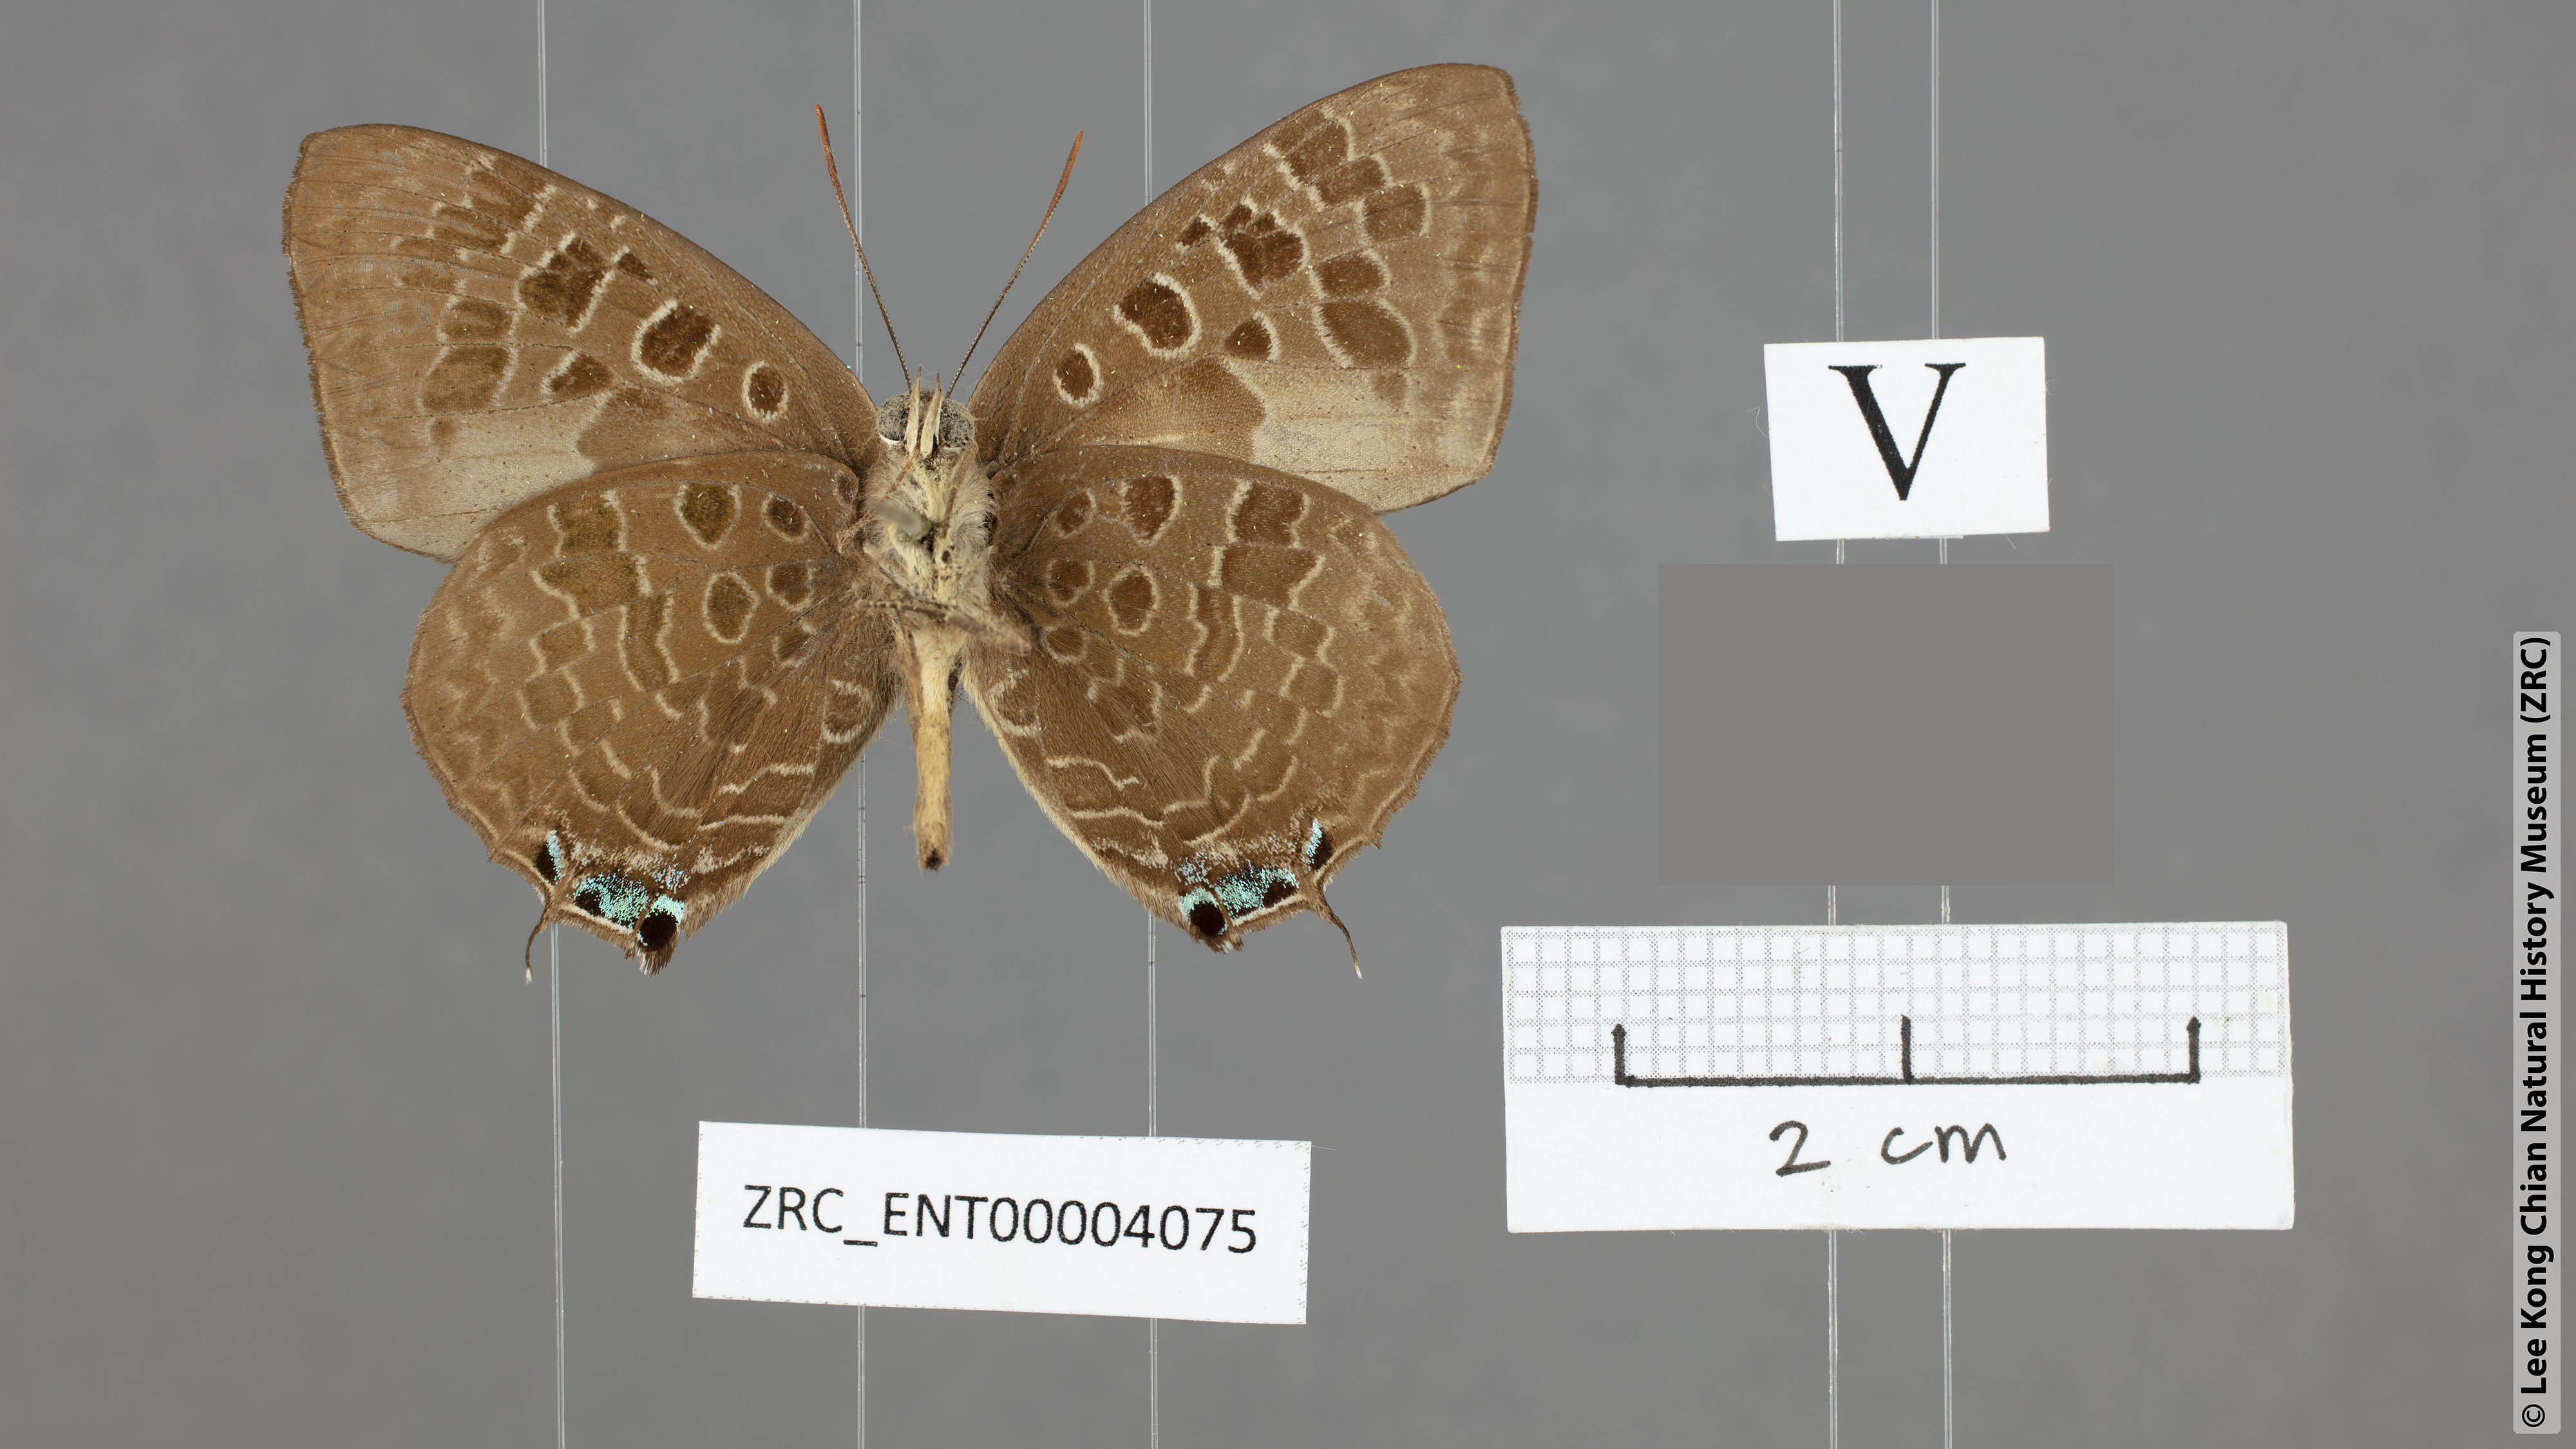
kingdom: Animalia
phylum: Arthropoda
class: Insecta
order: Lepidoptera
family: Lycaenidae
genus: Arhopala
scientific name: Arhopala hellenore
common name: Doherty's green oakblue
